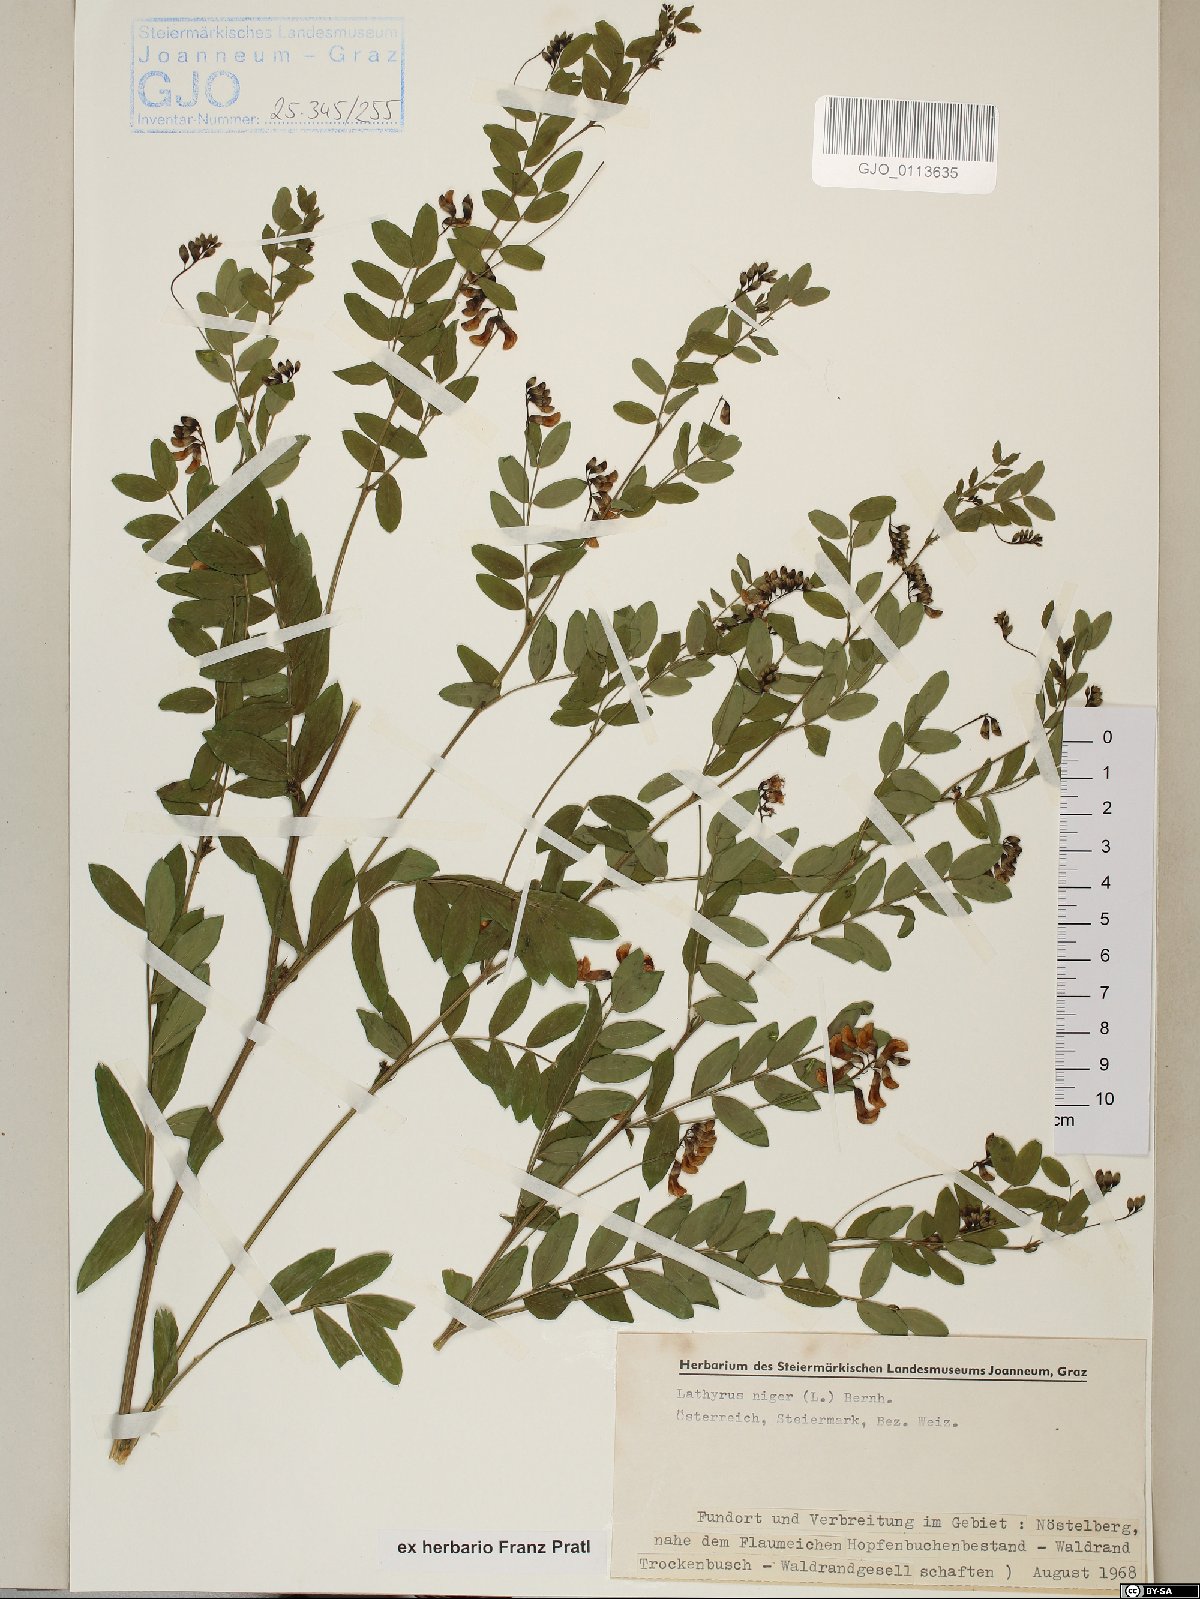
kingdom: Plantae
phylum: Tracheophyta
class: Magnoliopsida
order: Fabales
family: Fabaceae
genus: Lathyrus
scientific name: Lathyrus niger
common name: Black pea
